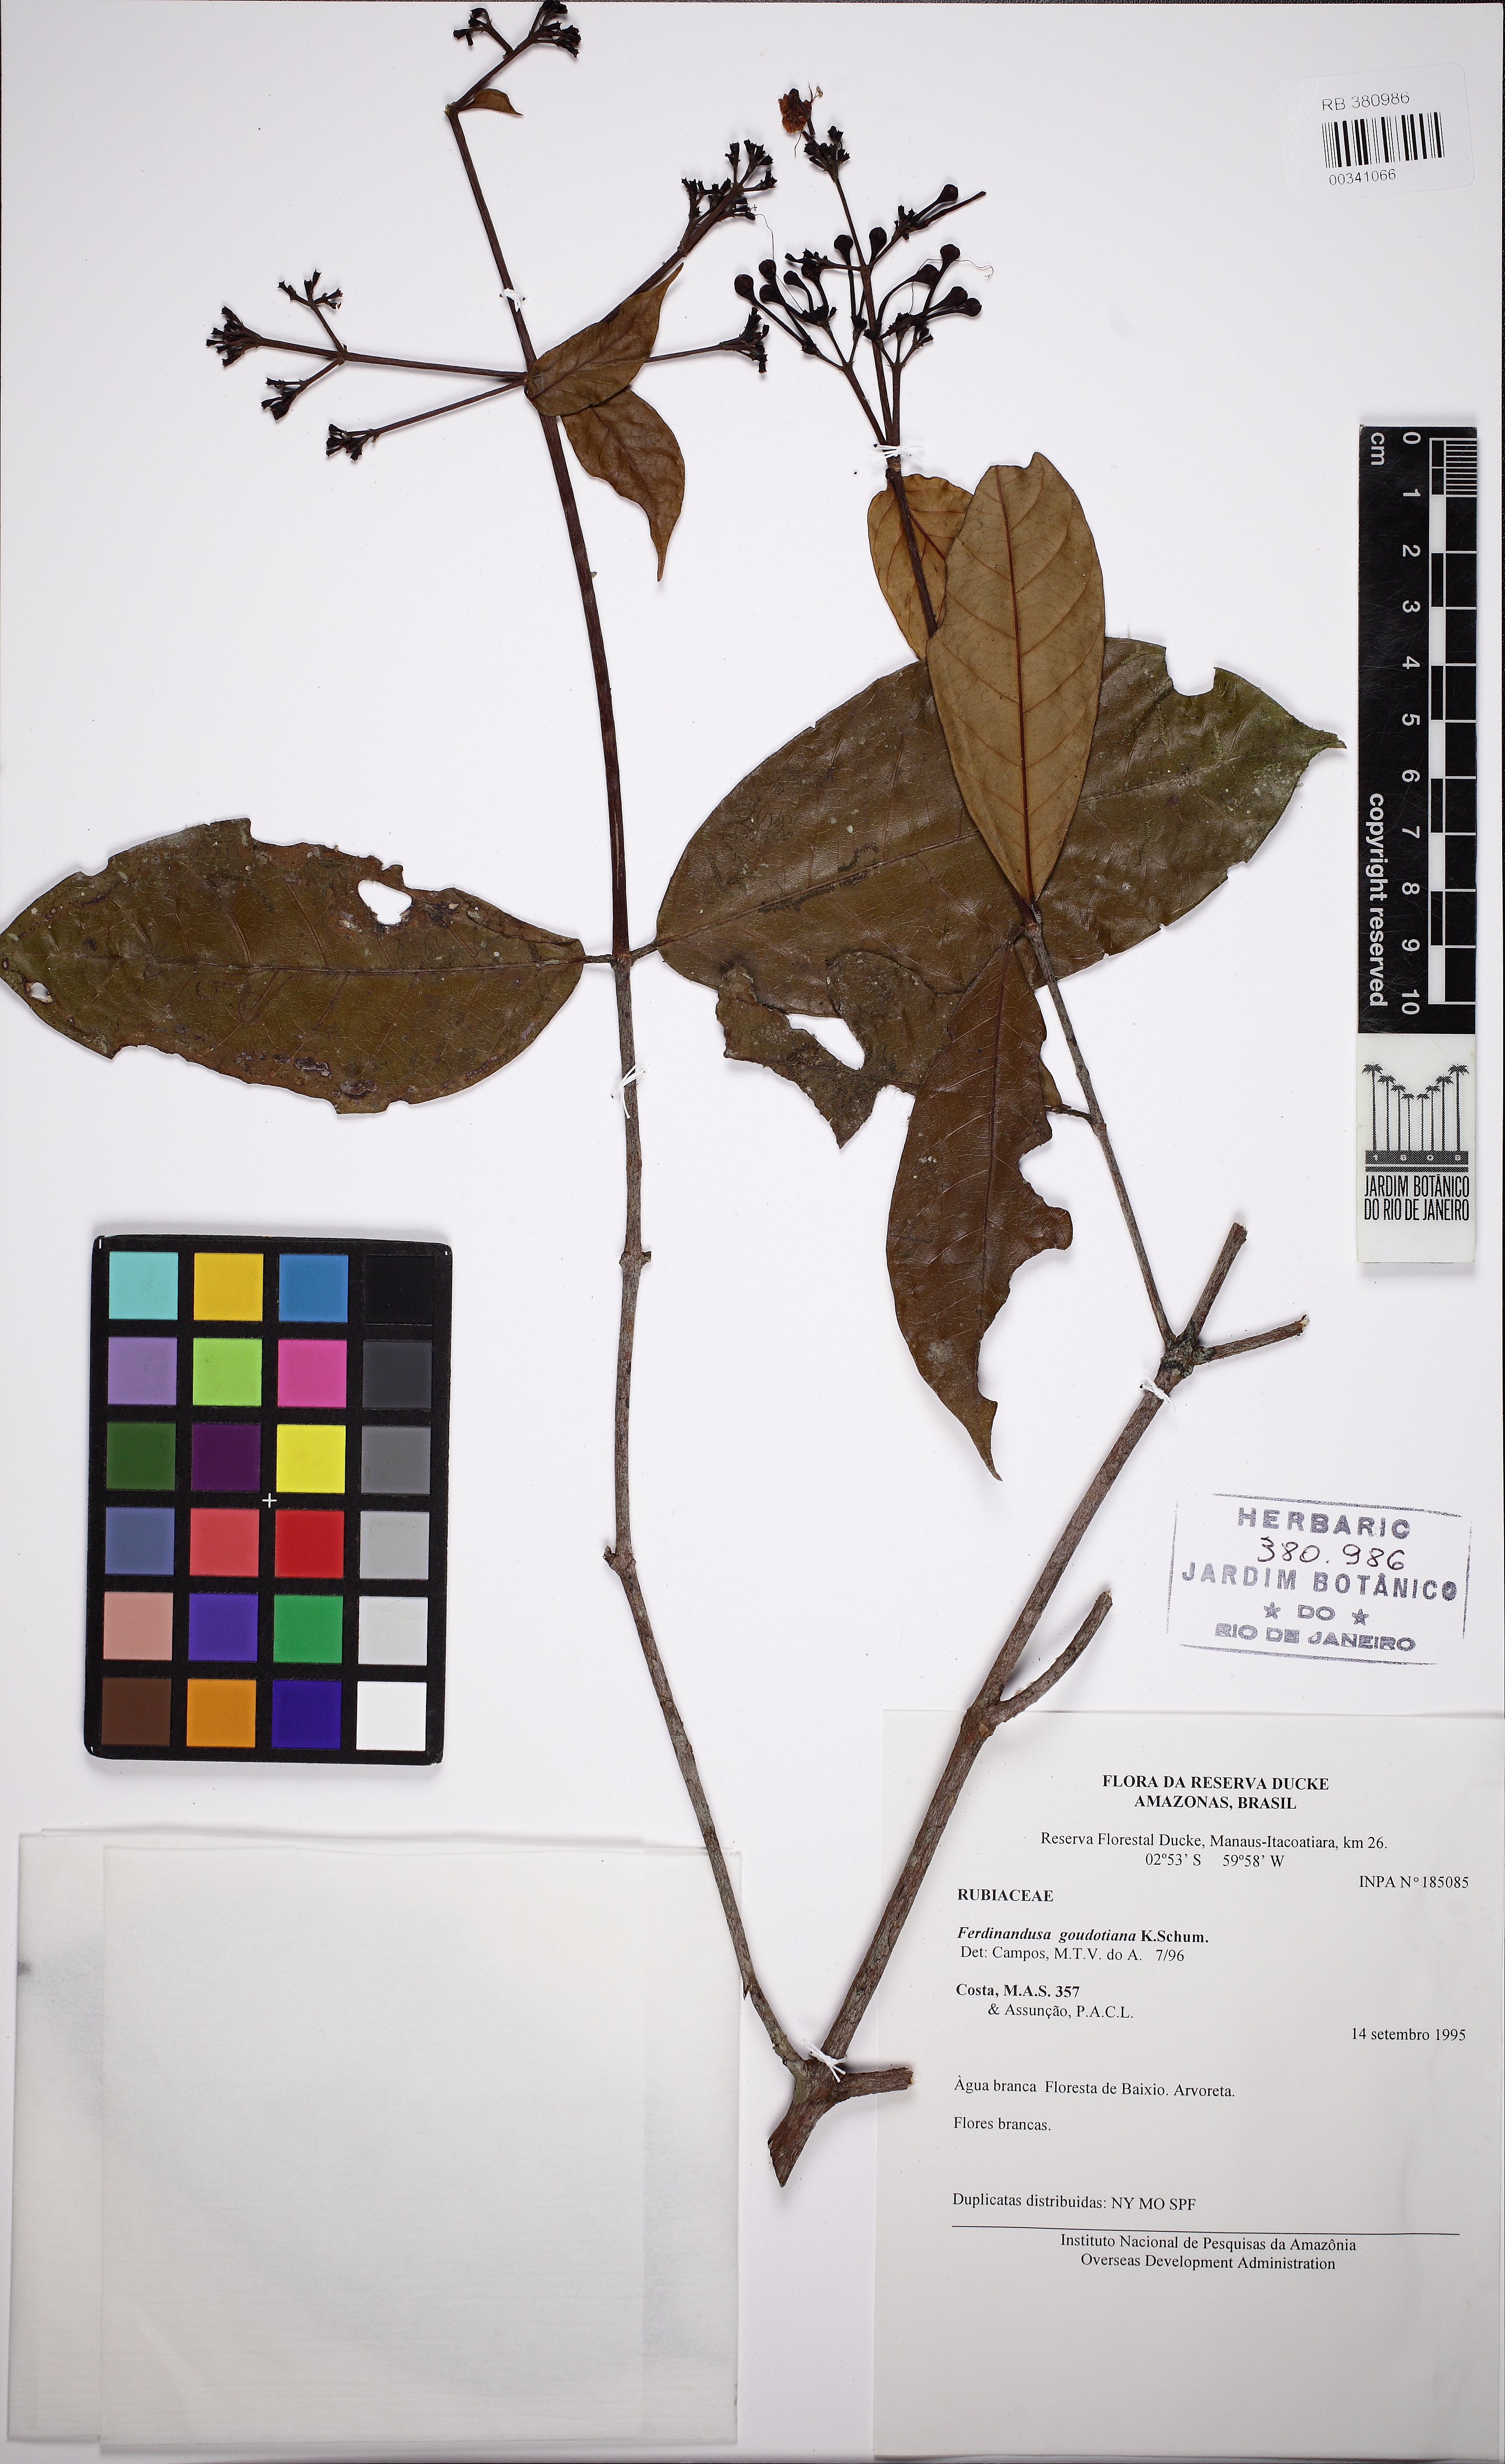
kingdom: Plantae
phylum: Tracheophyta
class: Magnoliopsida
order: Gentianales
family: Rubiaceae
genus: Ferdinandusa
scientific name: Ferdinandusa goudotiana
